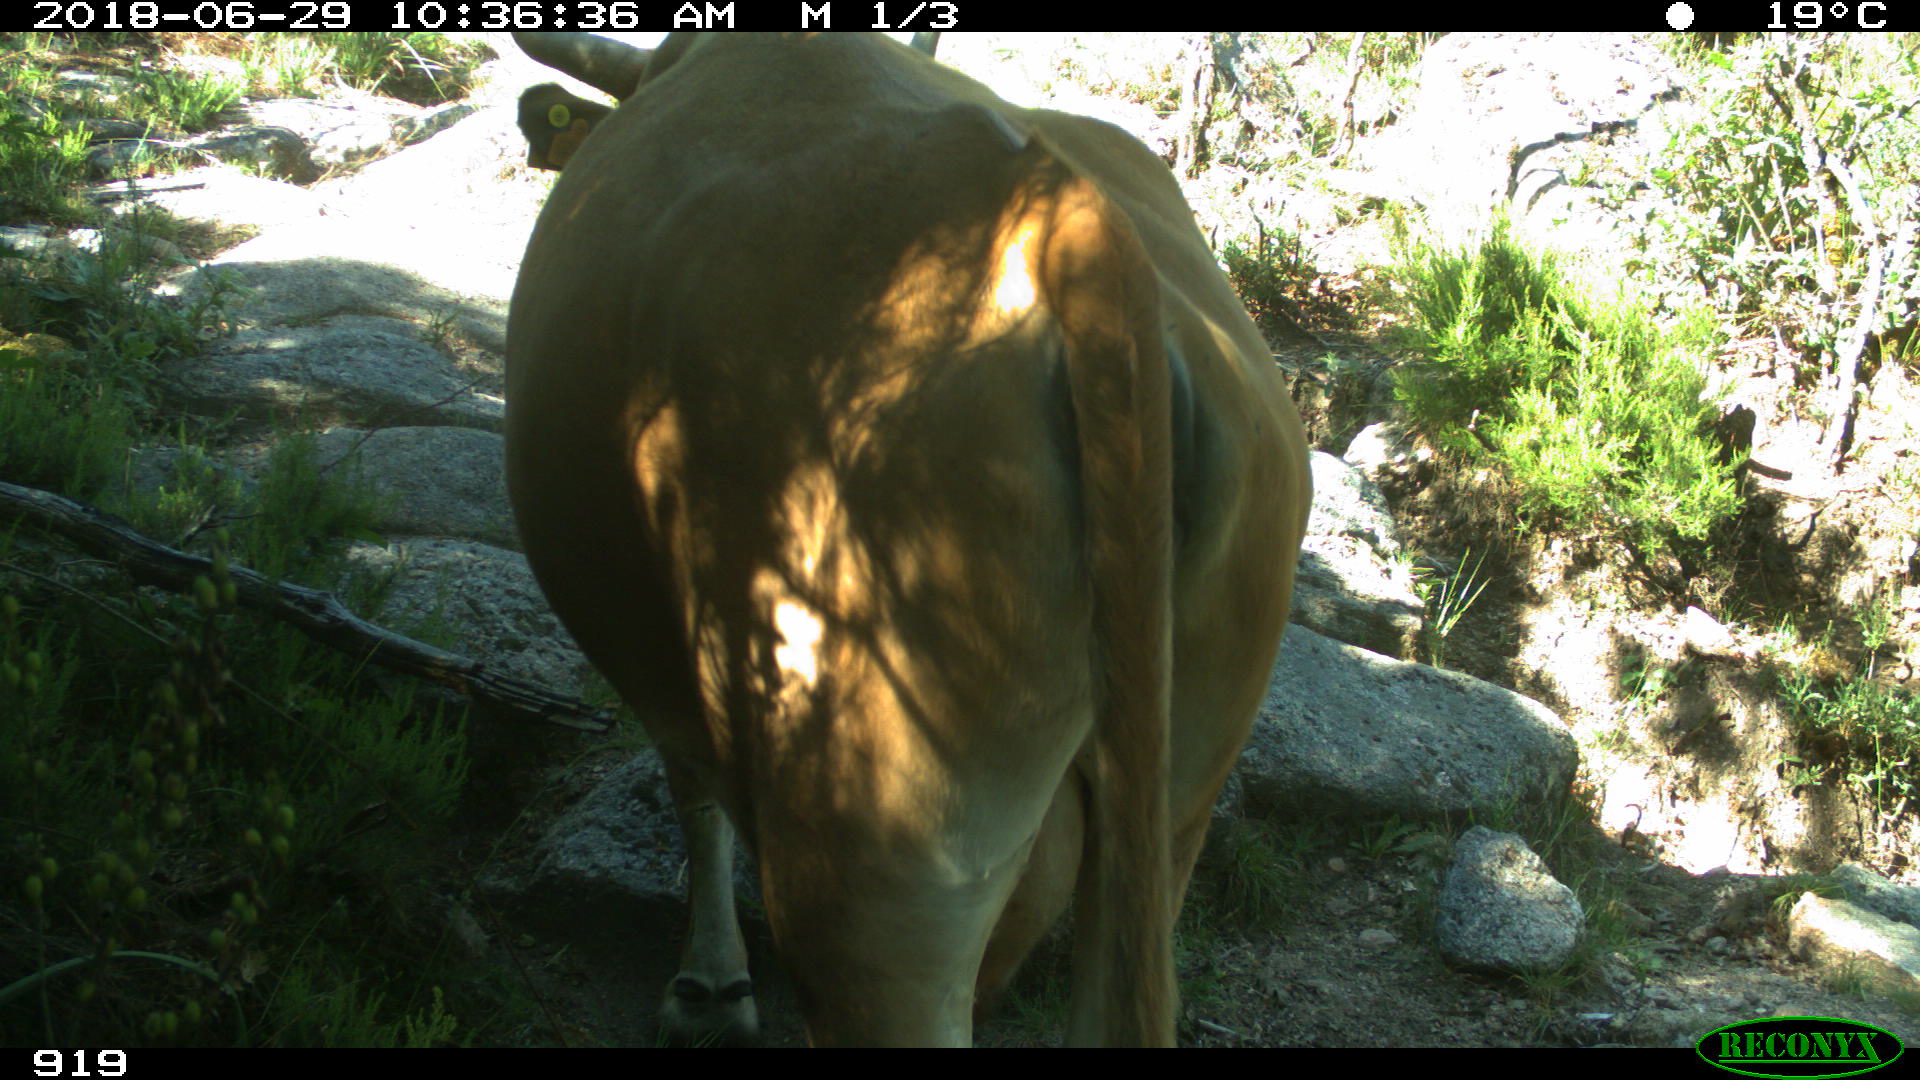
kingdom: Animalia
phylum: Chordata
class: Mammalia
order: Artiodactyla
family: Bovidae
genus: Bos
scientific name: Bos taurus
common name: Domesticated cattle
